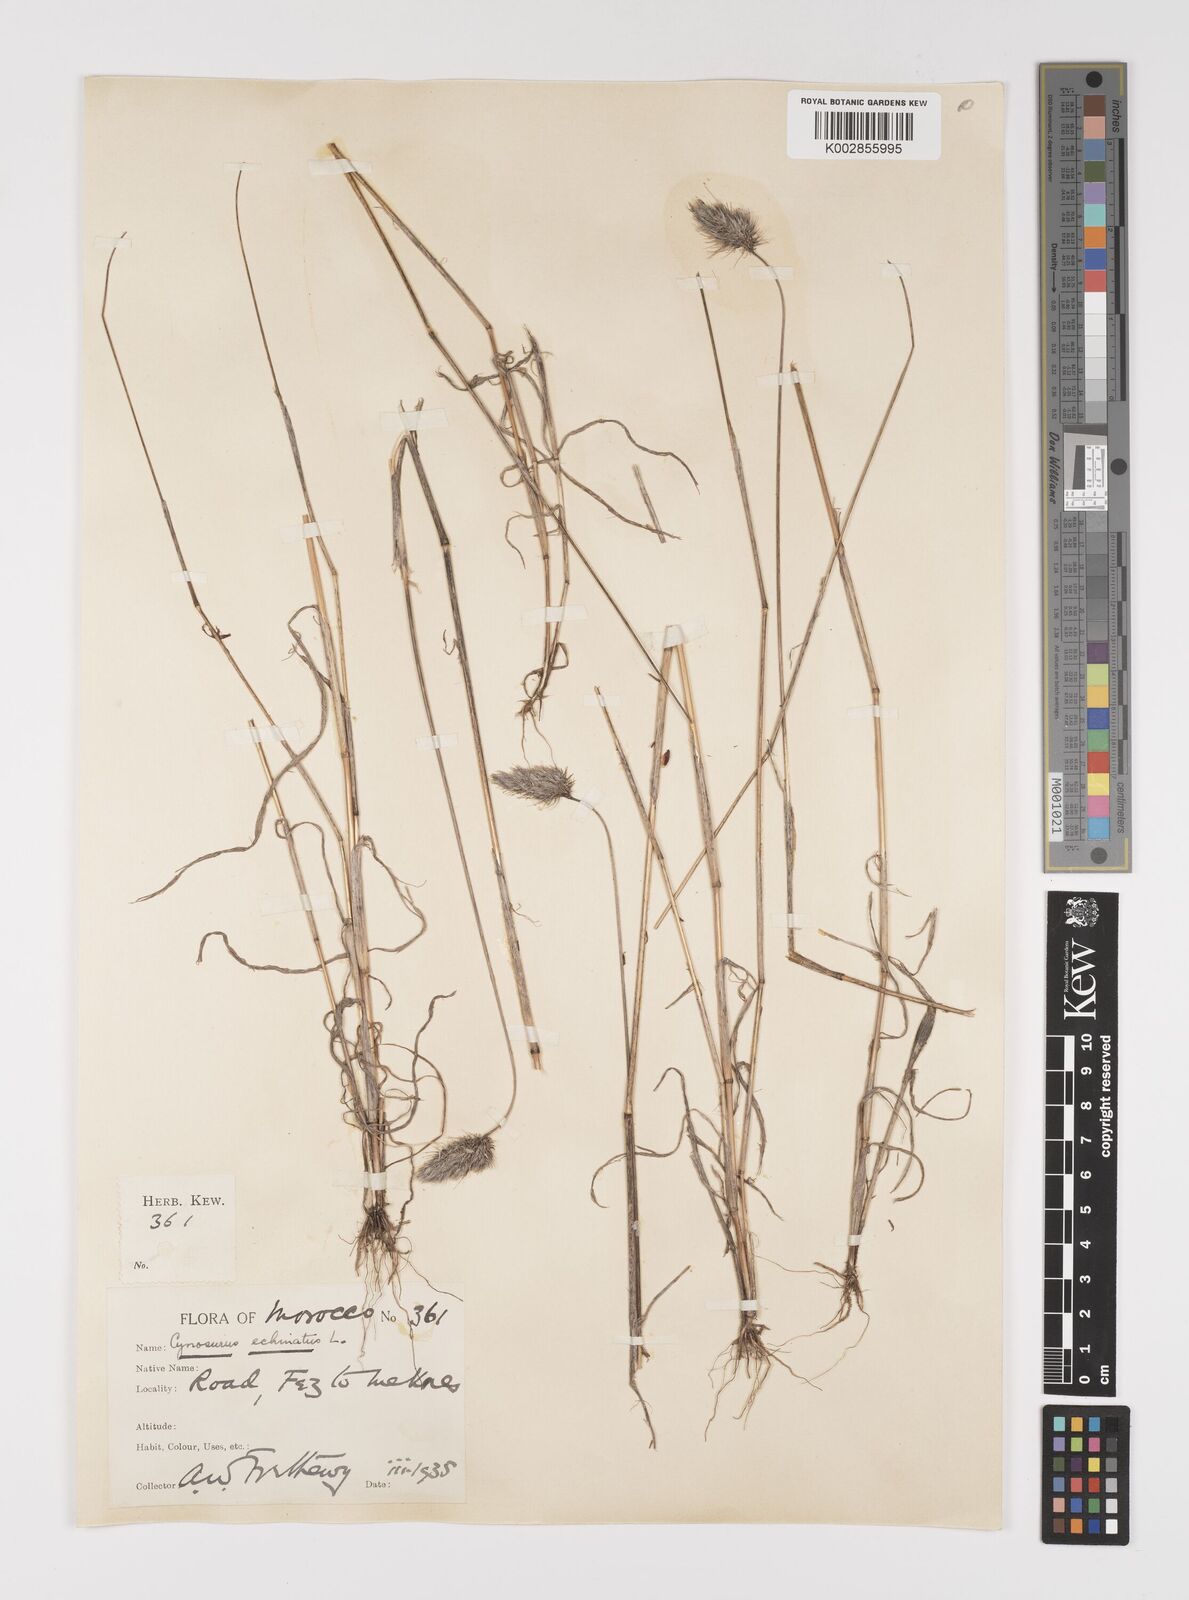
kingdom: Plantae
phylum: Tracheophyta
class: Liliopsida
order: Poales
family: Poaceae
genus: Cynosurus
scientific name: Cynosurus echinatus
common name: Rough dog's-tail
